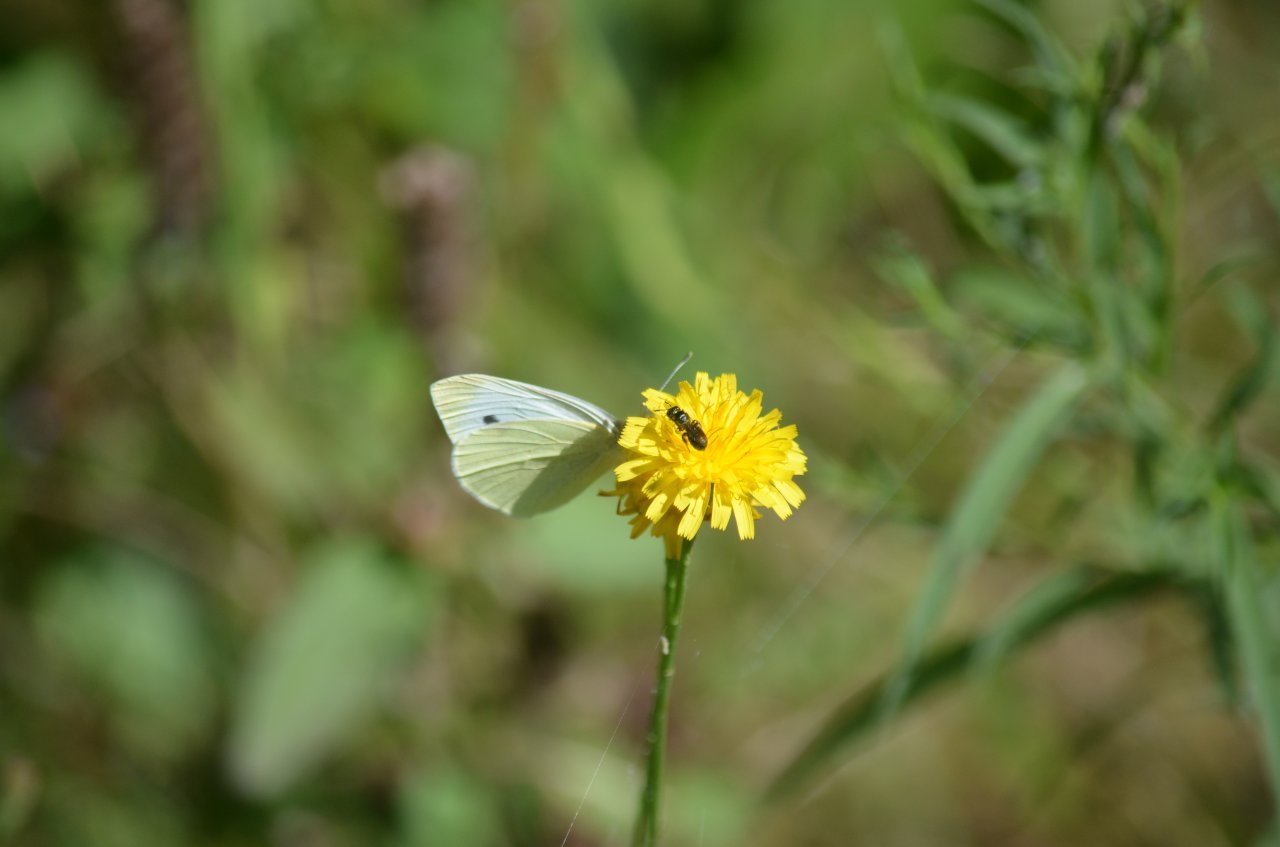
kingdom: Animalia
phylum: Arthropoda
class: Insecta
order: Lepidoptera
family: Pieridae
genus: Pieris
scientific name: Pieris rapae
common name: Cabbage White
